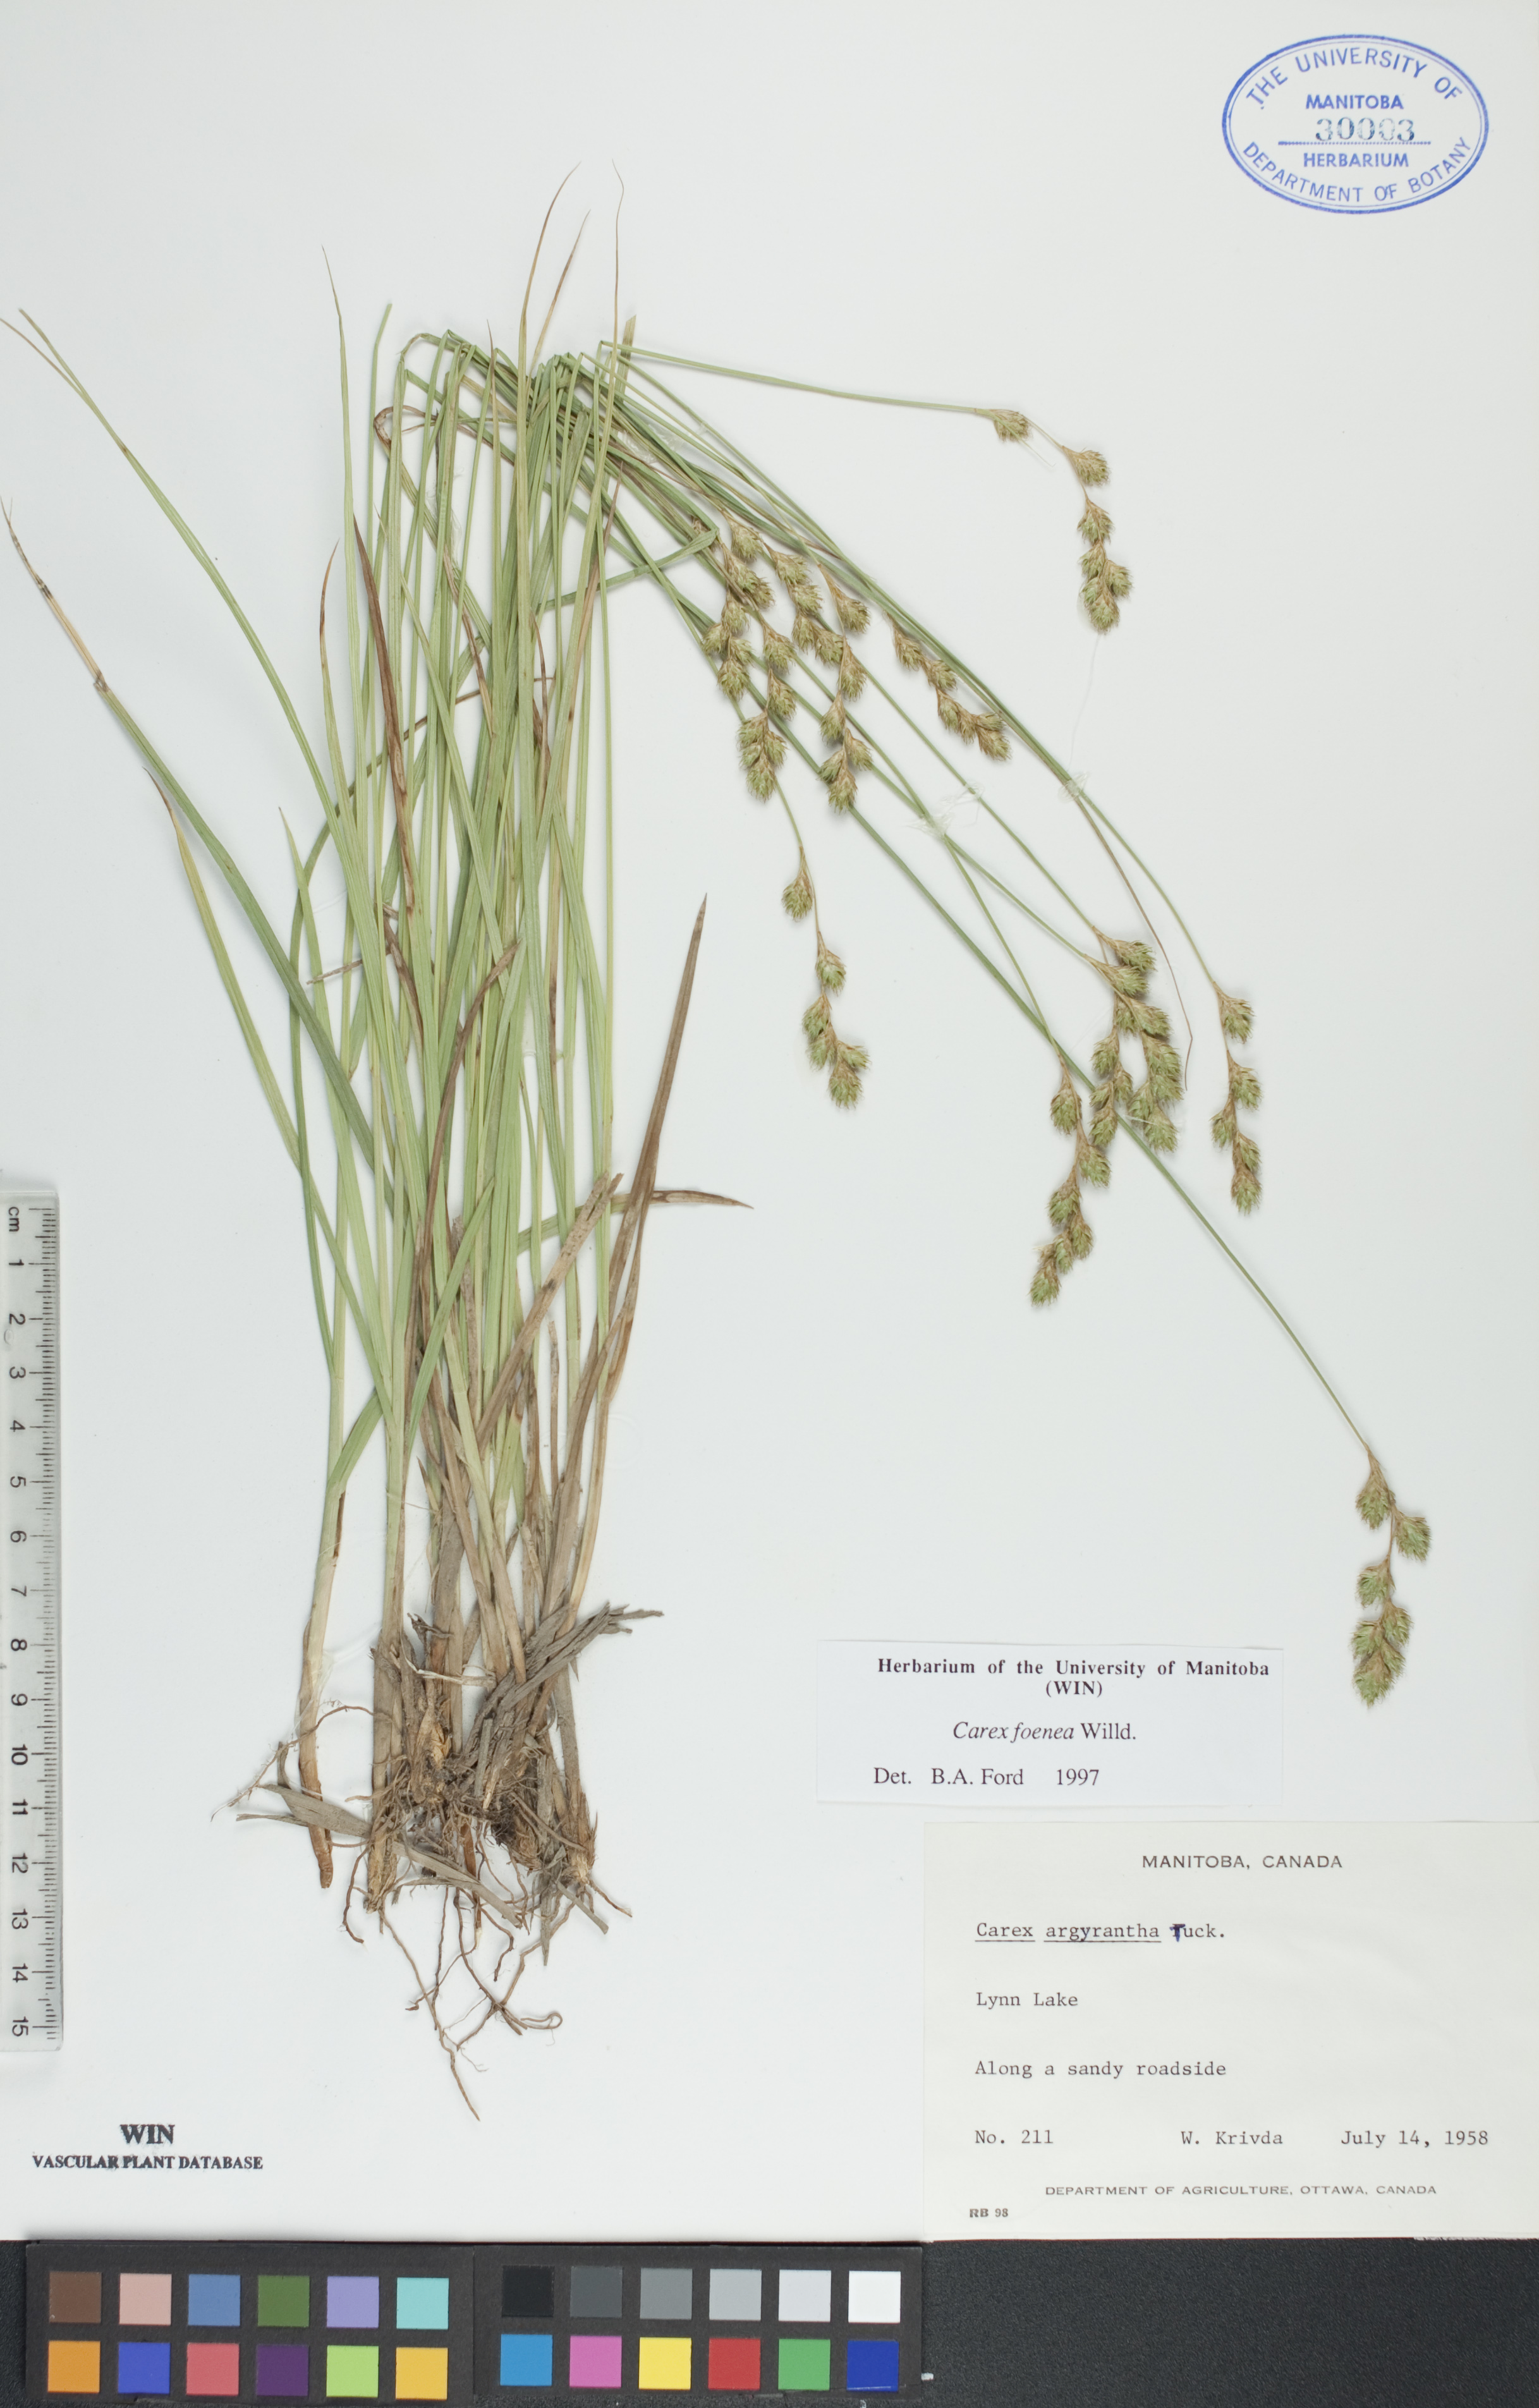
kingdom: Plantae
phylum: Tracheophyta
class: Liliopsida
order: Poales
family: Cyperaceae
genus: Carex
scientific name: Carex foenea
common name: Bronze sedge
